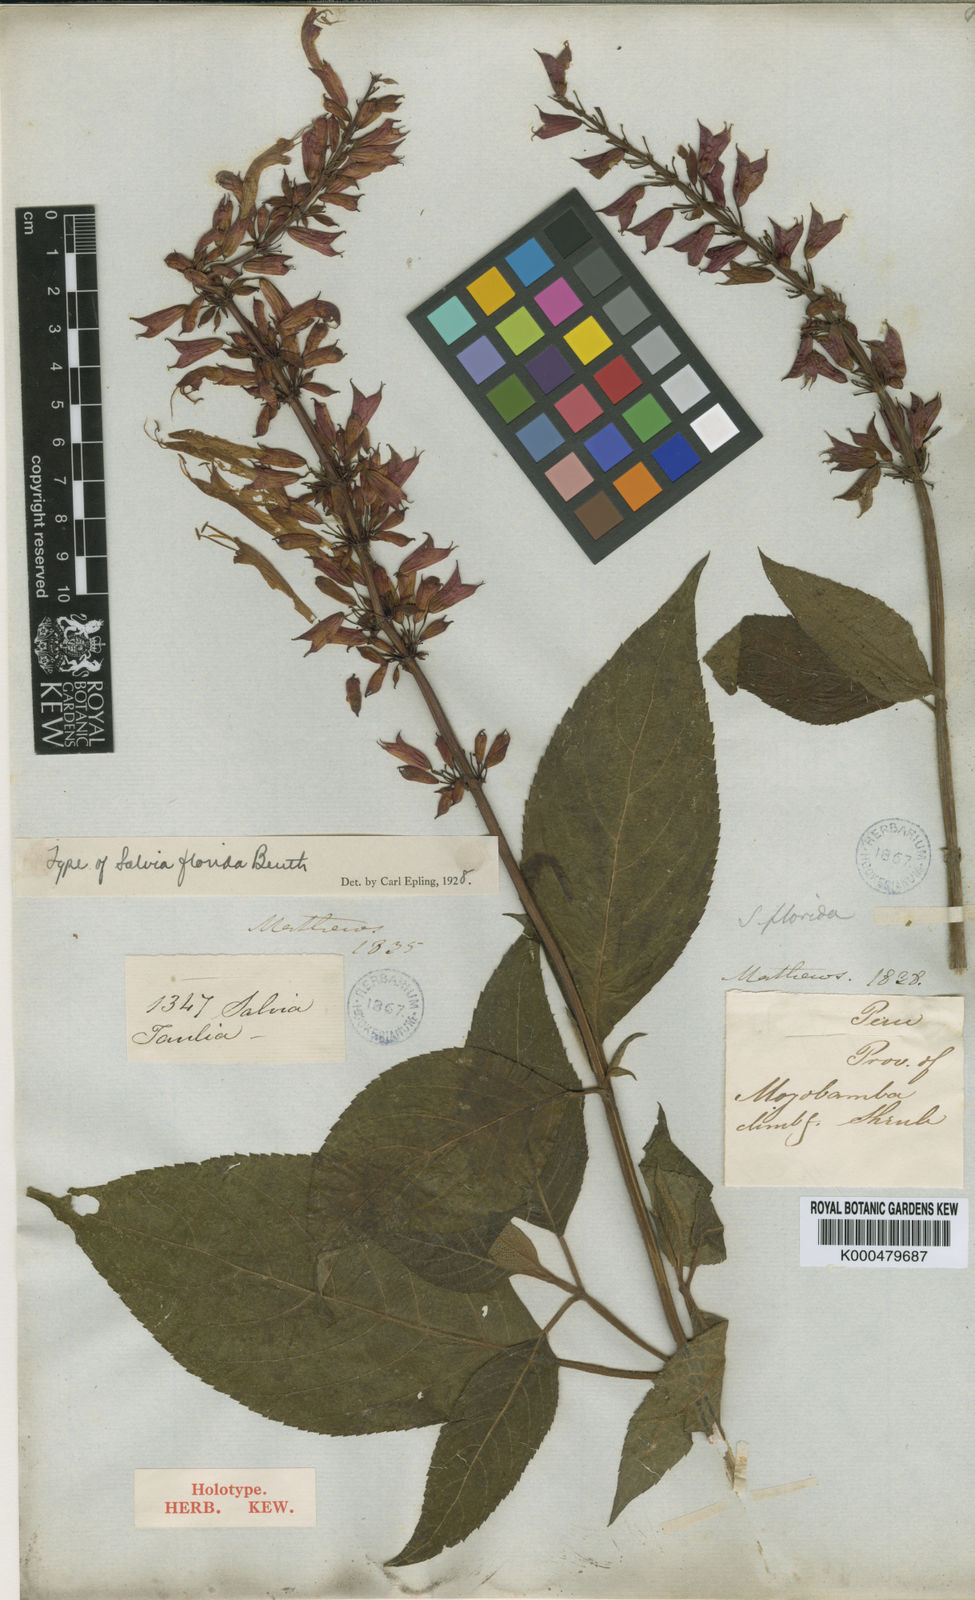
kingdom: Plantae
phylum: Tracheophyta
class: Magnoliopsida
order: Lamiales
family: Lamiaceae
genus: Salvia
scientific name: Salvia florida
